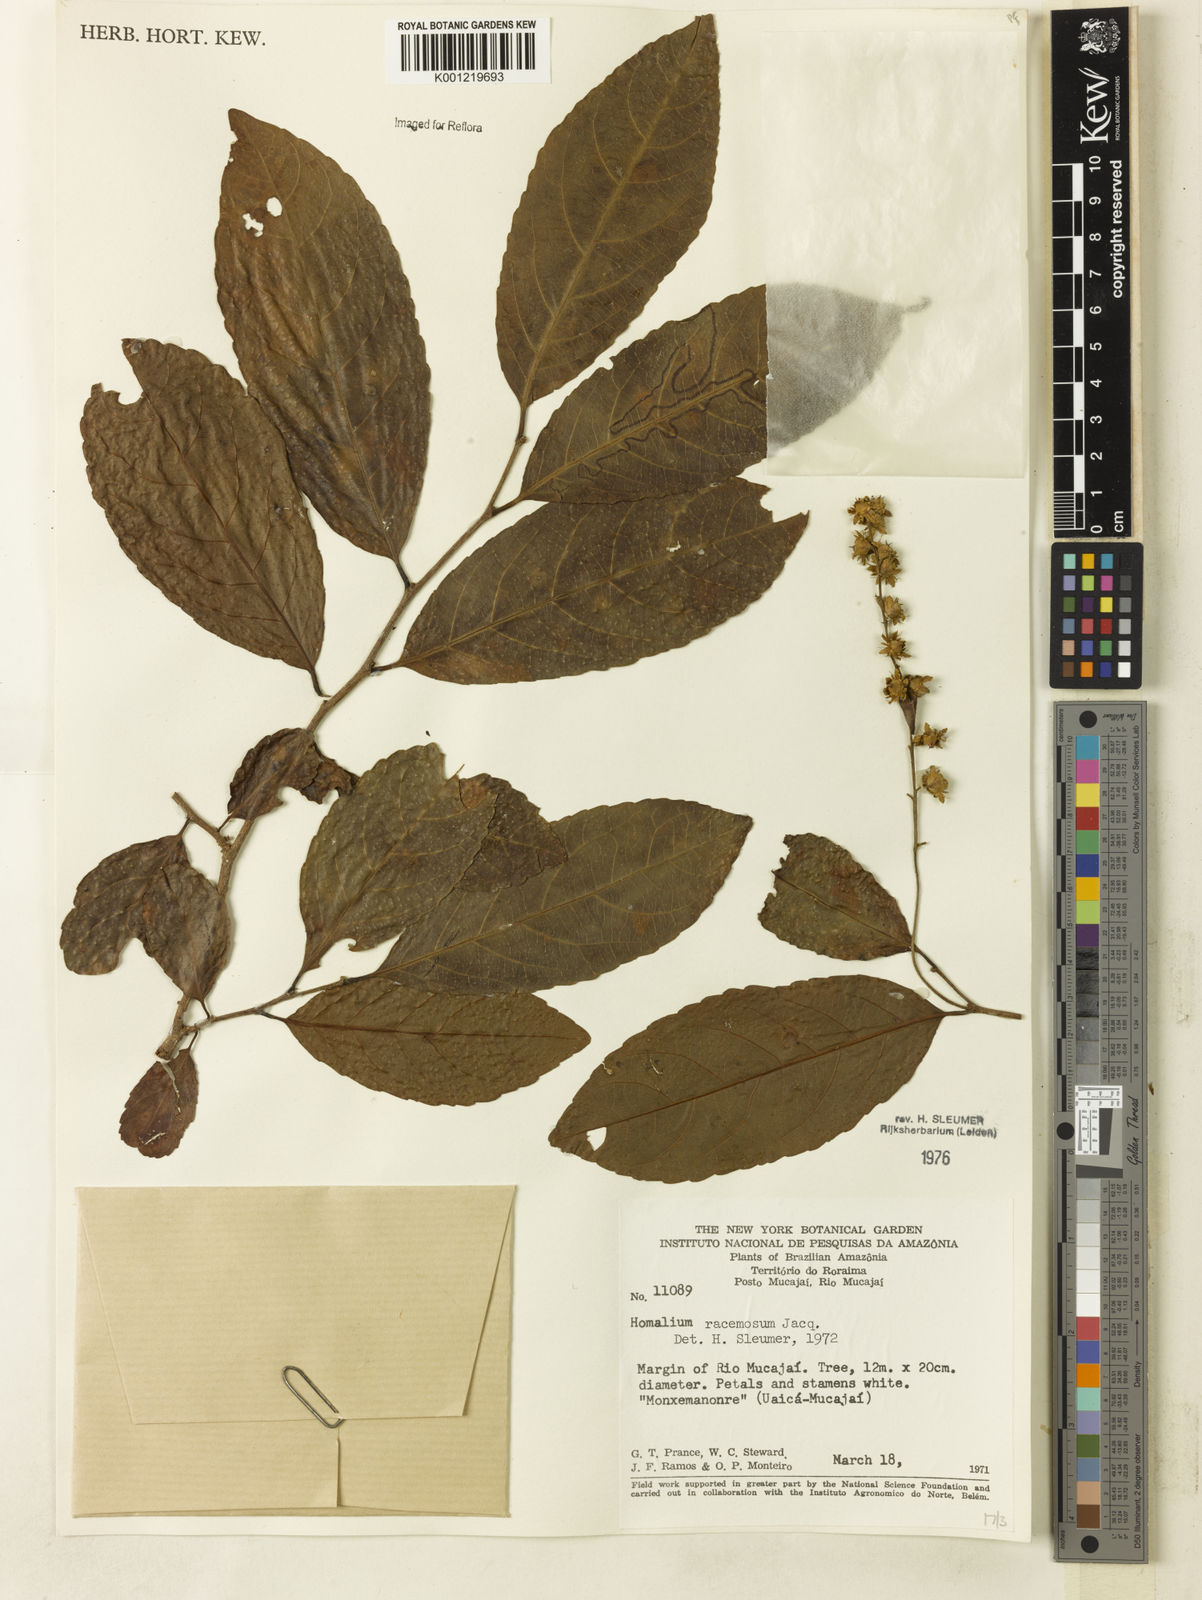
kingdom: Plantae
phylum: Tracheophyta
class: Magnoliopsida
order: Malpighiales
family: Salicaceae
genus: Homalium
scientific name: Homalium racemosum
